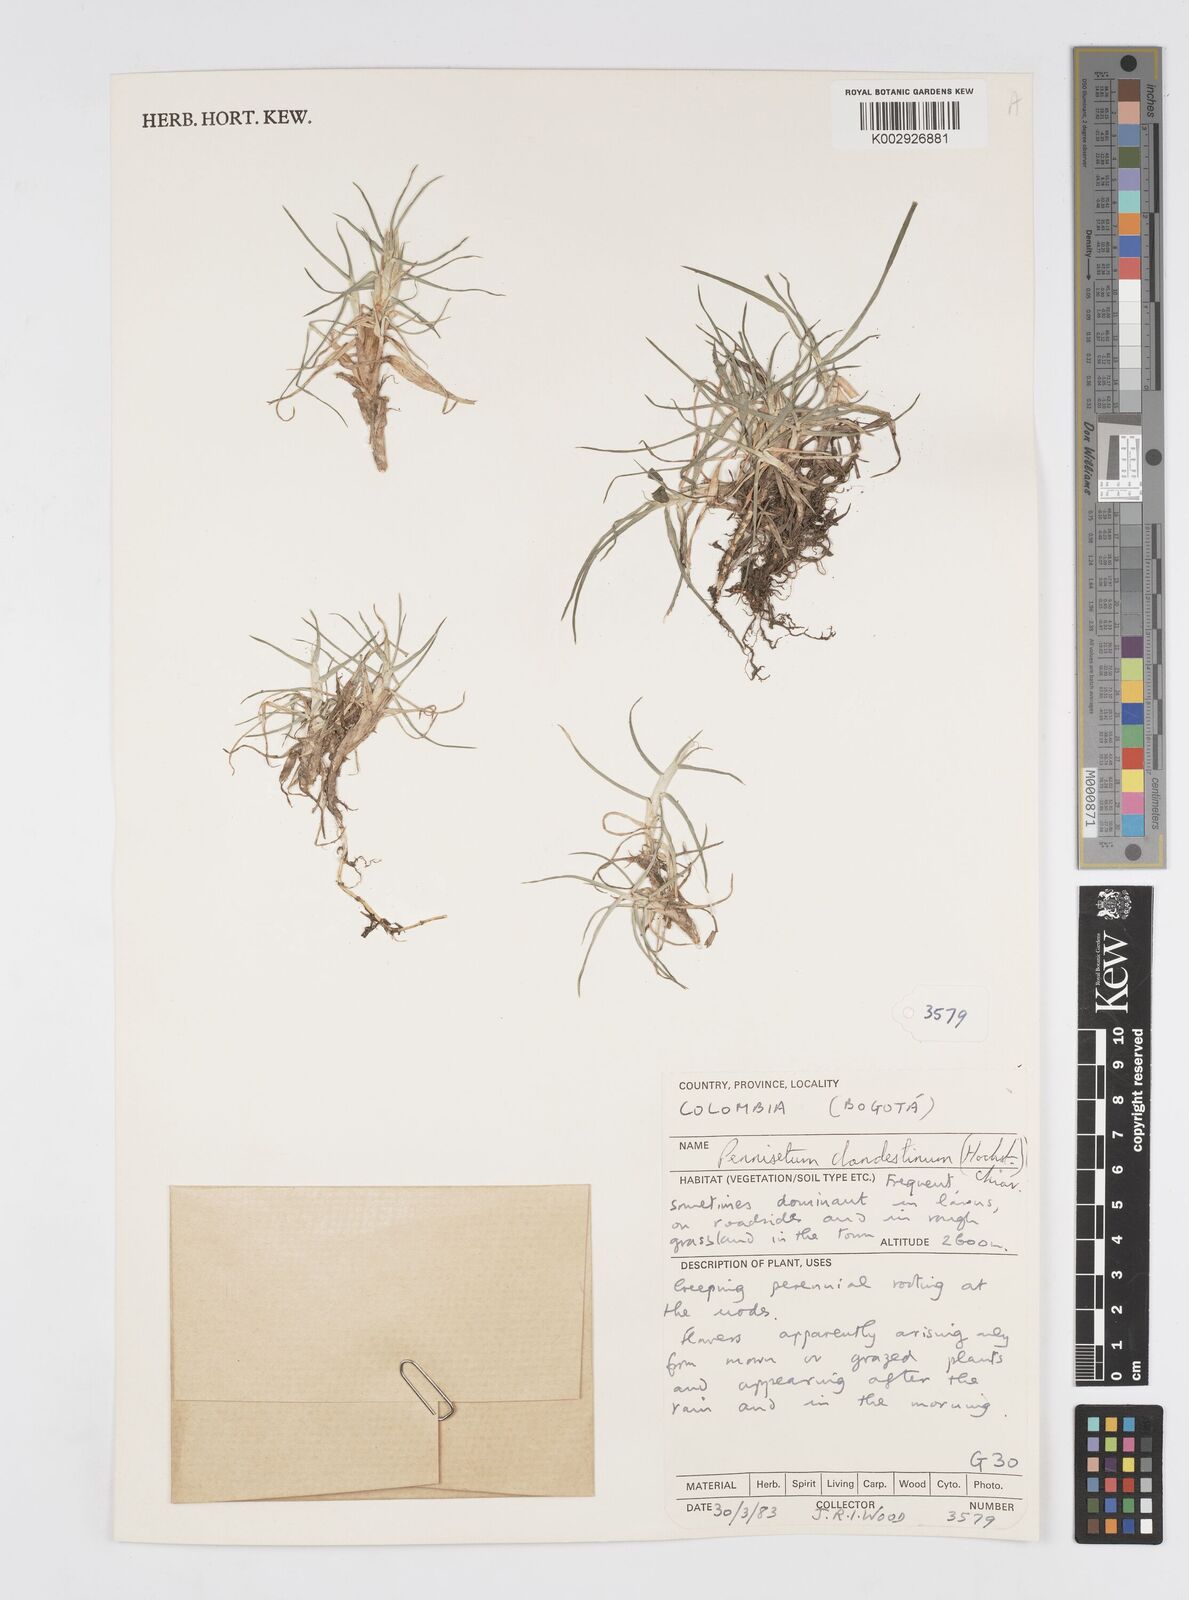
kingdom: Plantae
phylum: Tracheophyta
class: Liliopsida
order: Poales
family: Poaceae
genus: Cenchrus
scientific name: Cenchrus clandestinus
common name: Kikuyugrass
